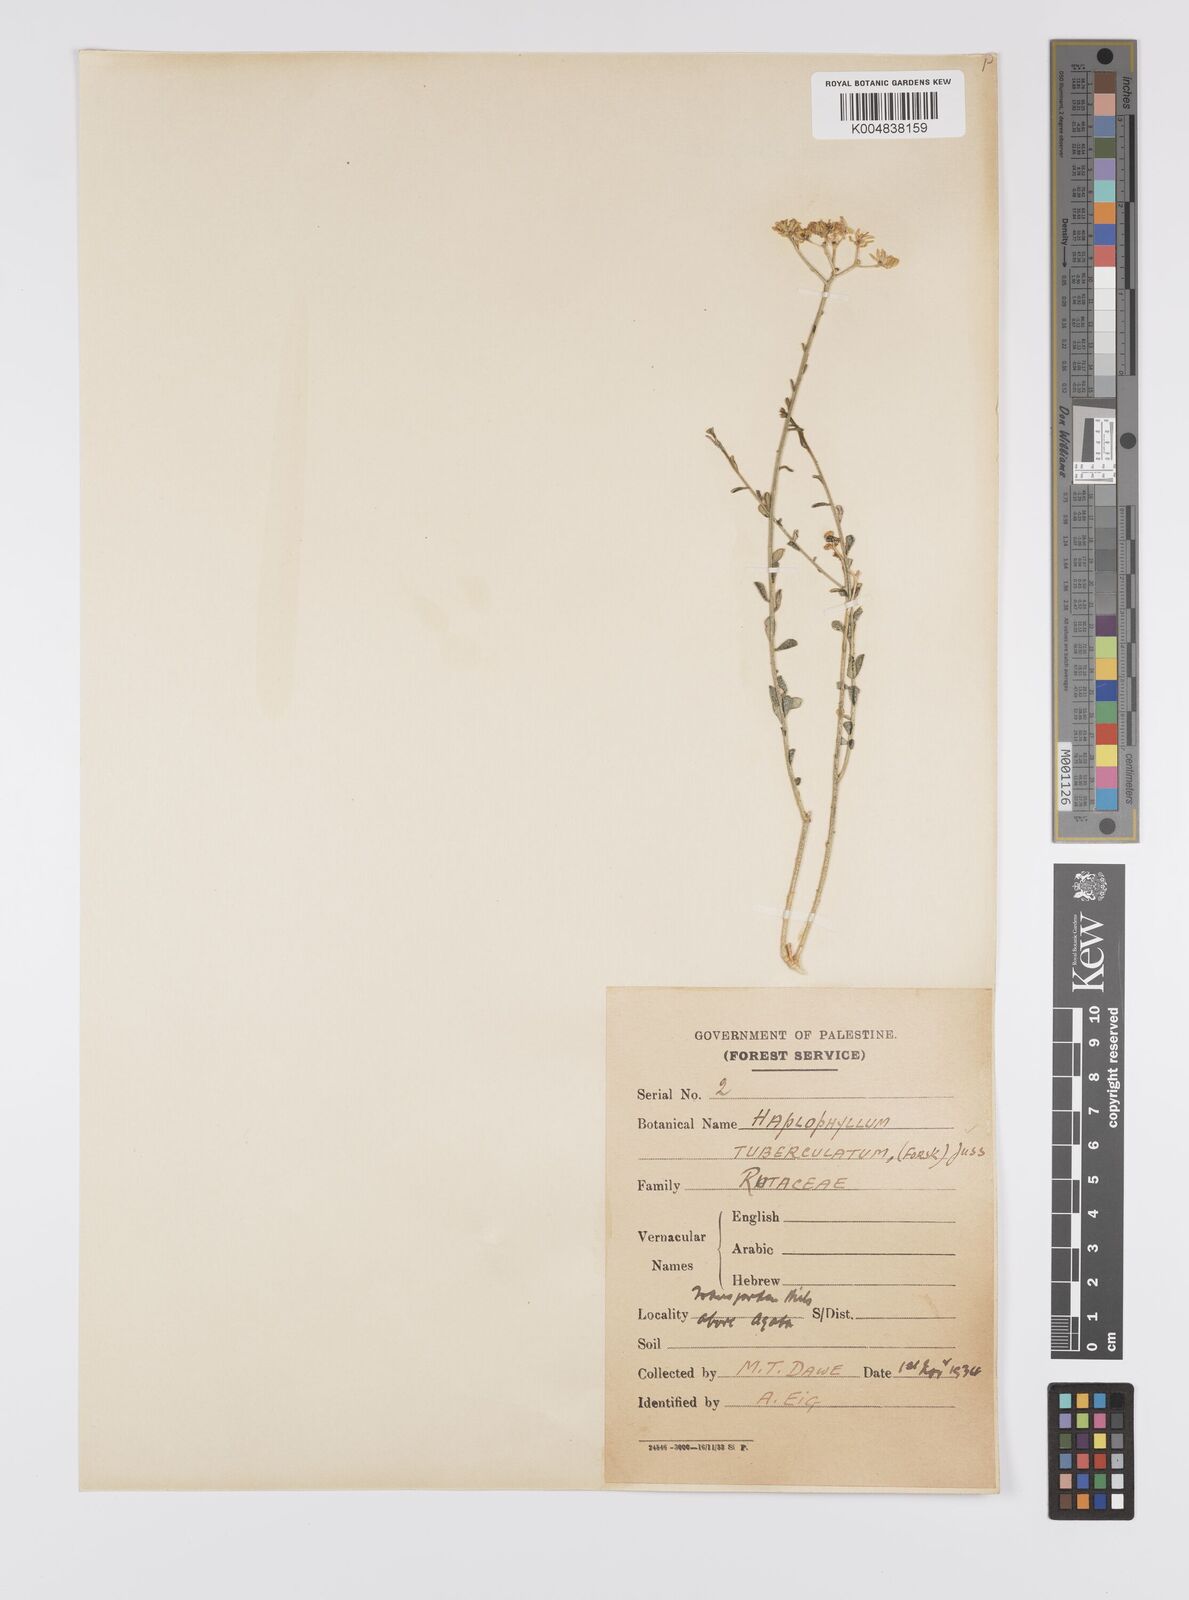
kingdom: Plantae
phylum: Tracheophyta
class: Magnoliopsida
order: Sapindales
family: Rutaceae
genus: Haplophyllum
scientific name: Haplophyllum tuberculatum
